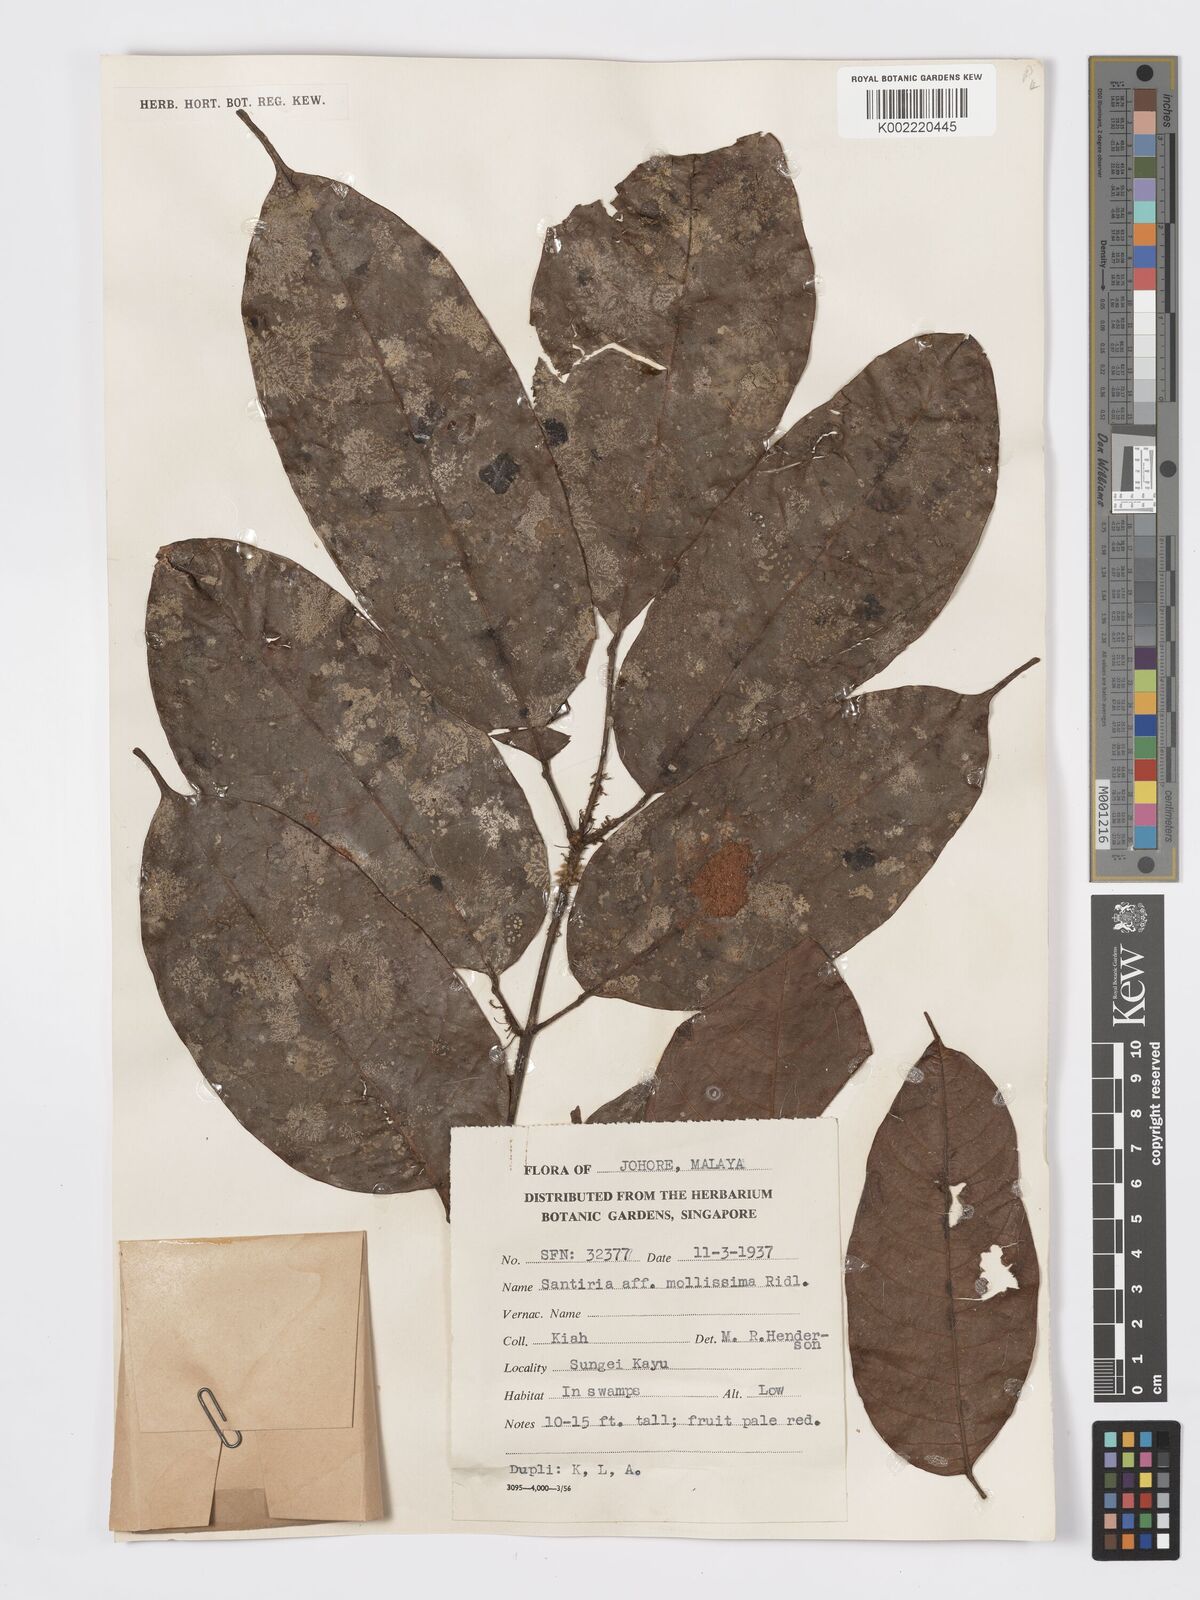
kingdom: Plantae
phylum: Tracheophyta
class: Magnoliopsida
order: Sapindales
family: Burseraceae
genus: Santiria
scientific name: Santiria tomentosa
